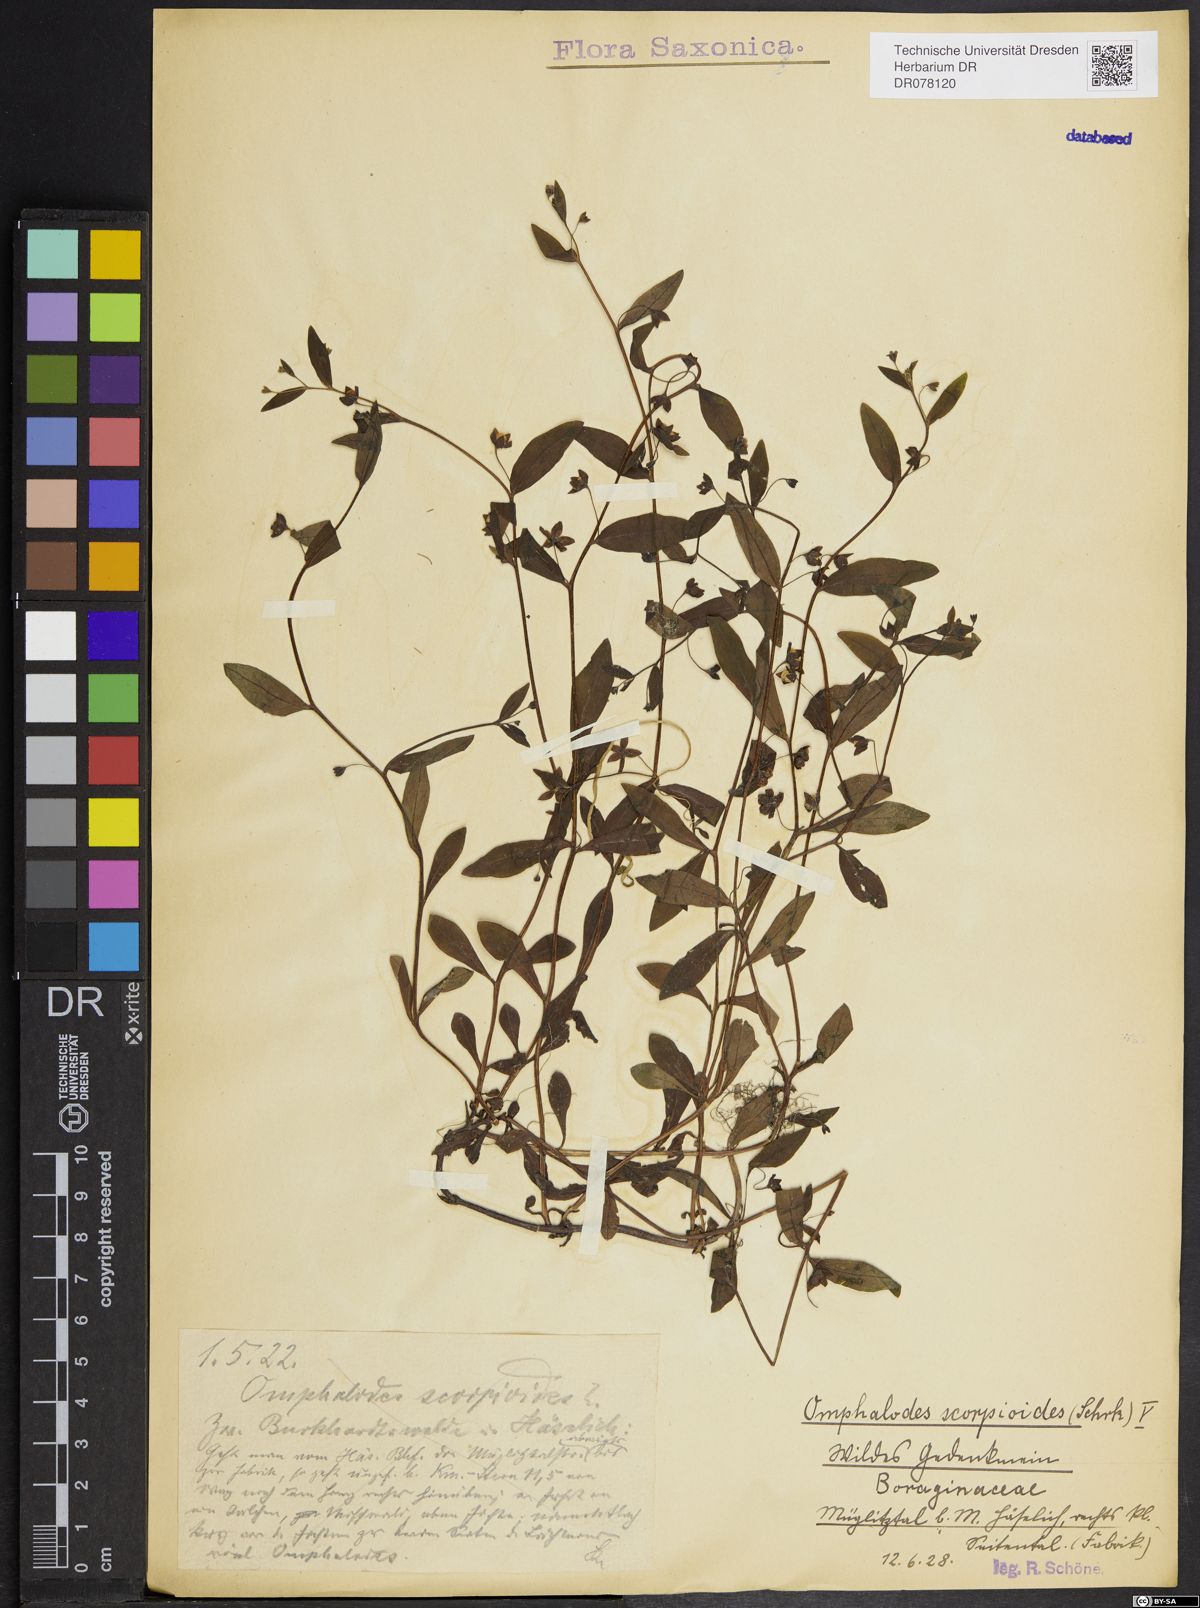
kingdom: Plantae
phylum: Tracheophyta
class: Magnoliopsida
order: Boraginales
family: Boraginaceae
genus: Memoremea
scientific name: Memoremea scorpioides
